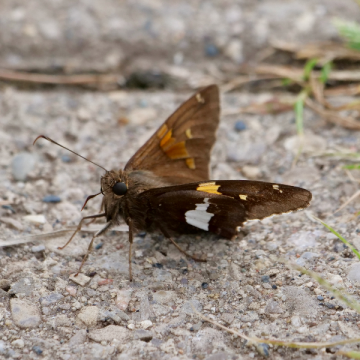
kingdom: Animalia
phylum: Arthropoda
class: Insecta
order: Lepidoptera
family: Hesperiidae
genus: Epargyreus
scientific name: Epargyreus clarus
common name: Silver-spotted Skipper
